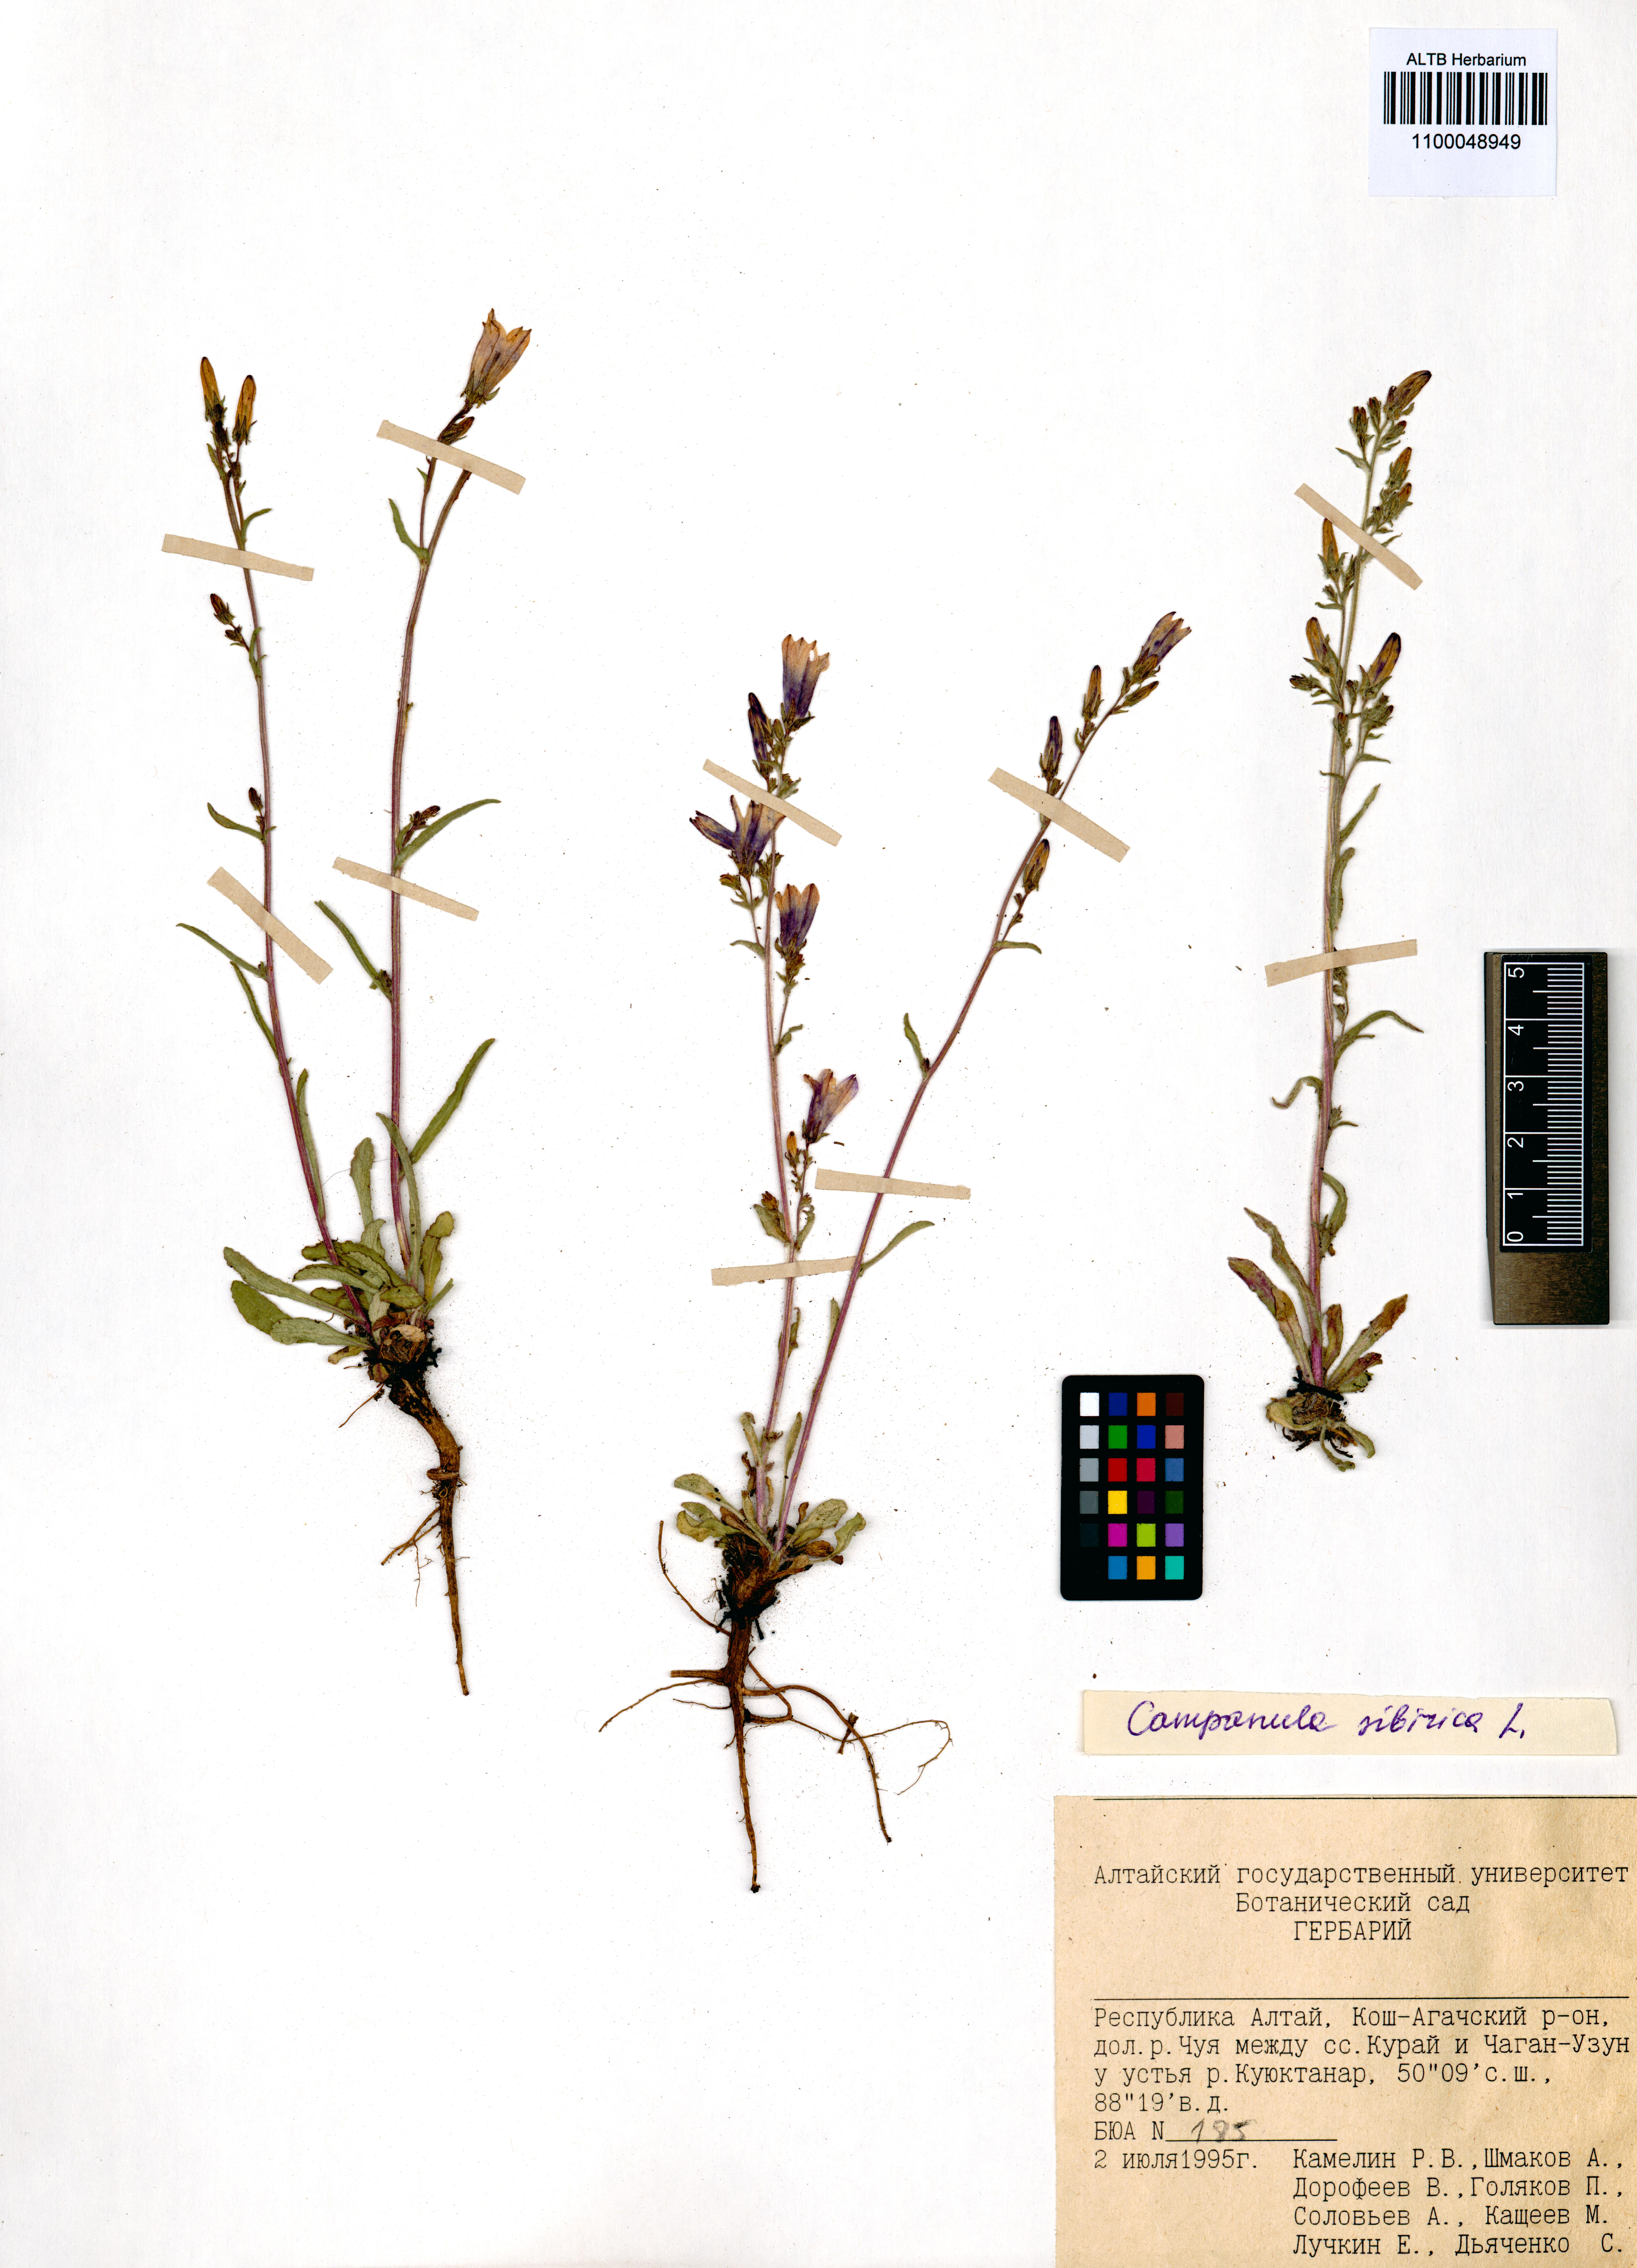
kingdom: Plantae
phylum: Tracheophyta
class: Magnoliopsida
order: Asterales
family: Campanulaceae
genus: Campanula
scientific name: Campanula sibirica
